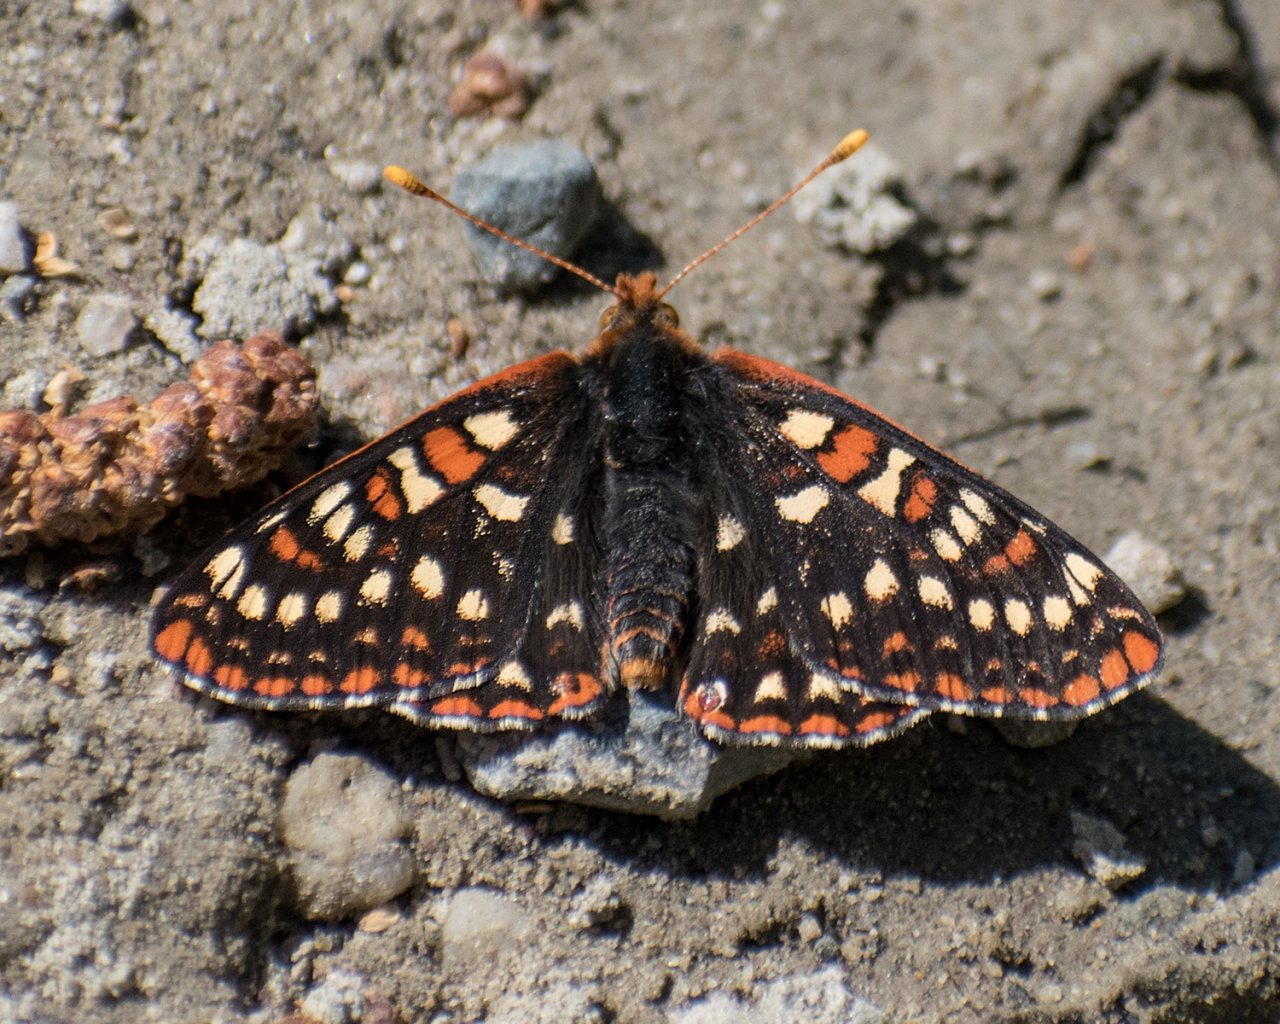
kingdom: Animalia
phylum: Arthropoda
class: Insecta
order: Lepidoptera
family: Nymphalidae
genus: Occidryas
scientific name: Occidryas anicia
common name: Anicia Checkerspot
